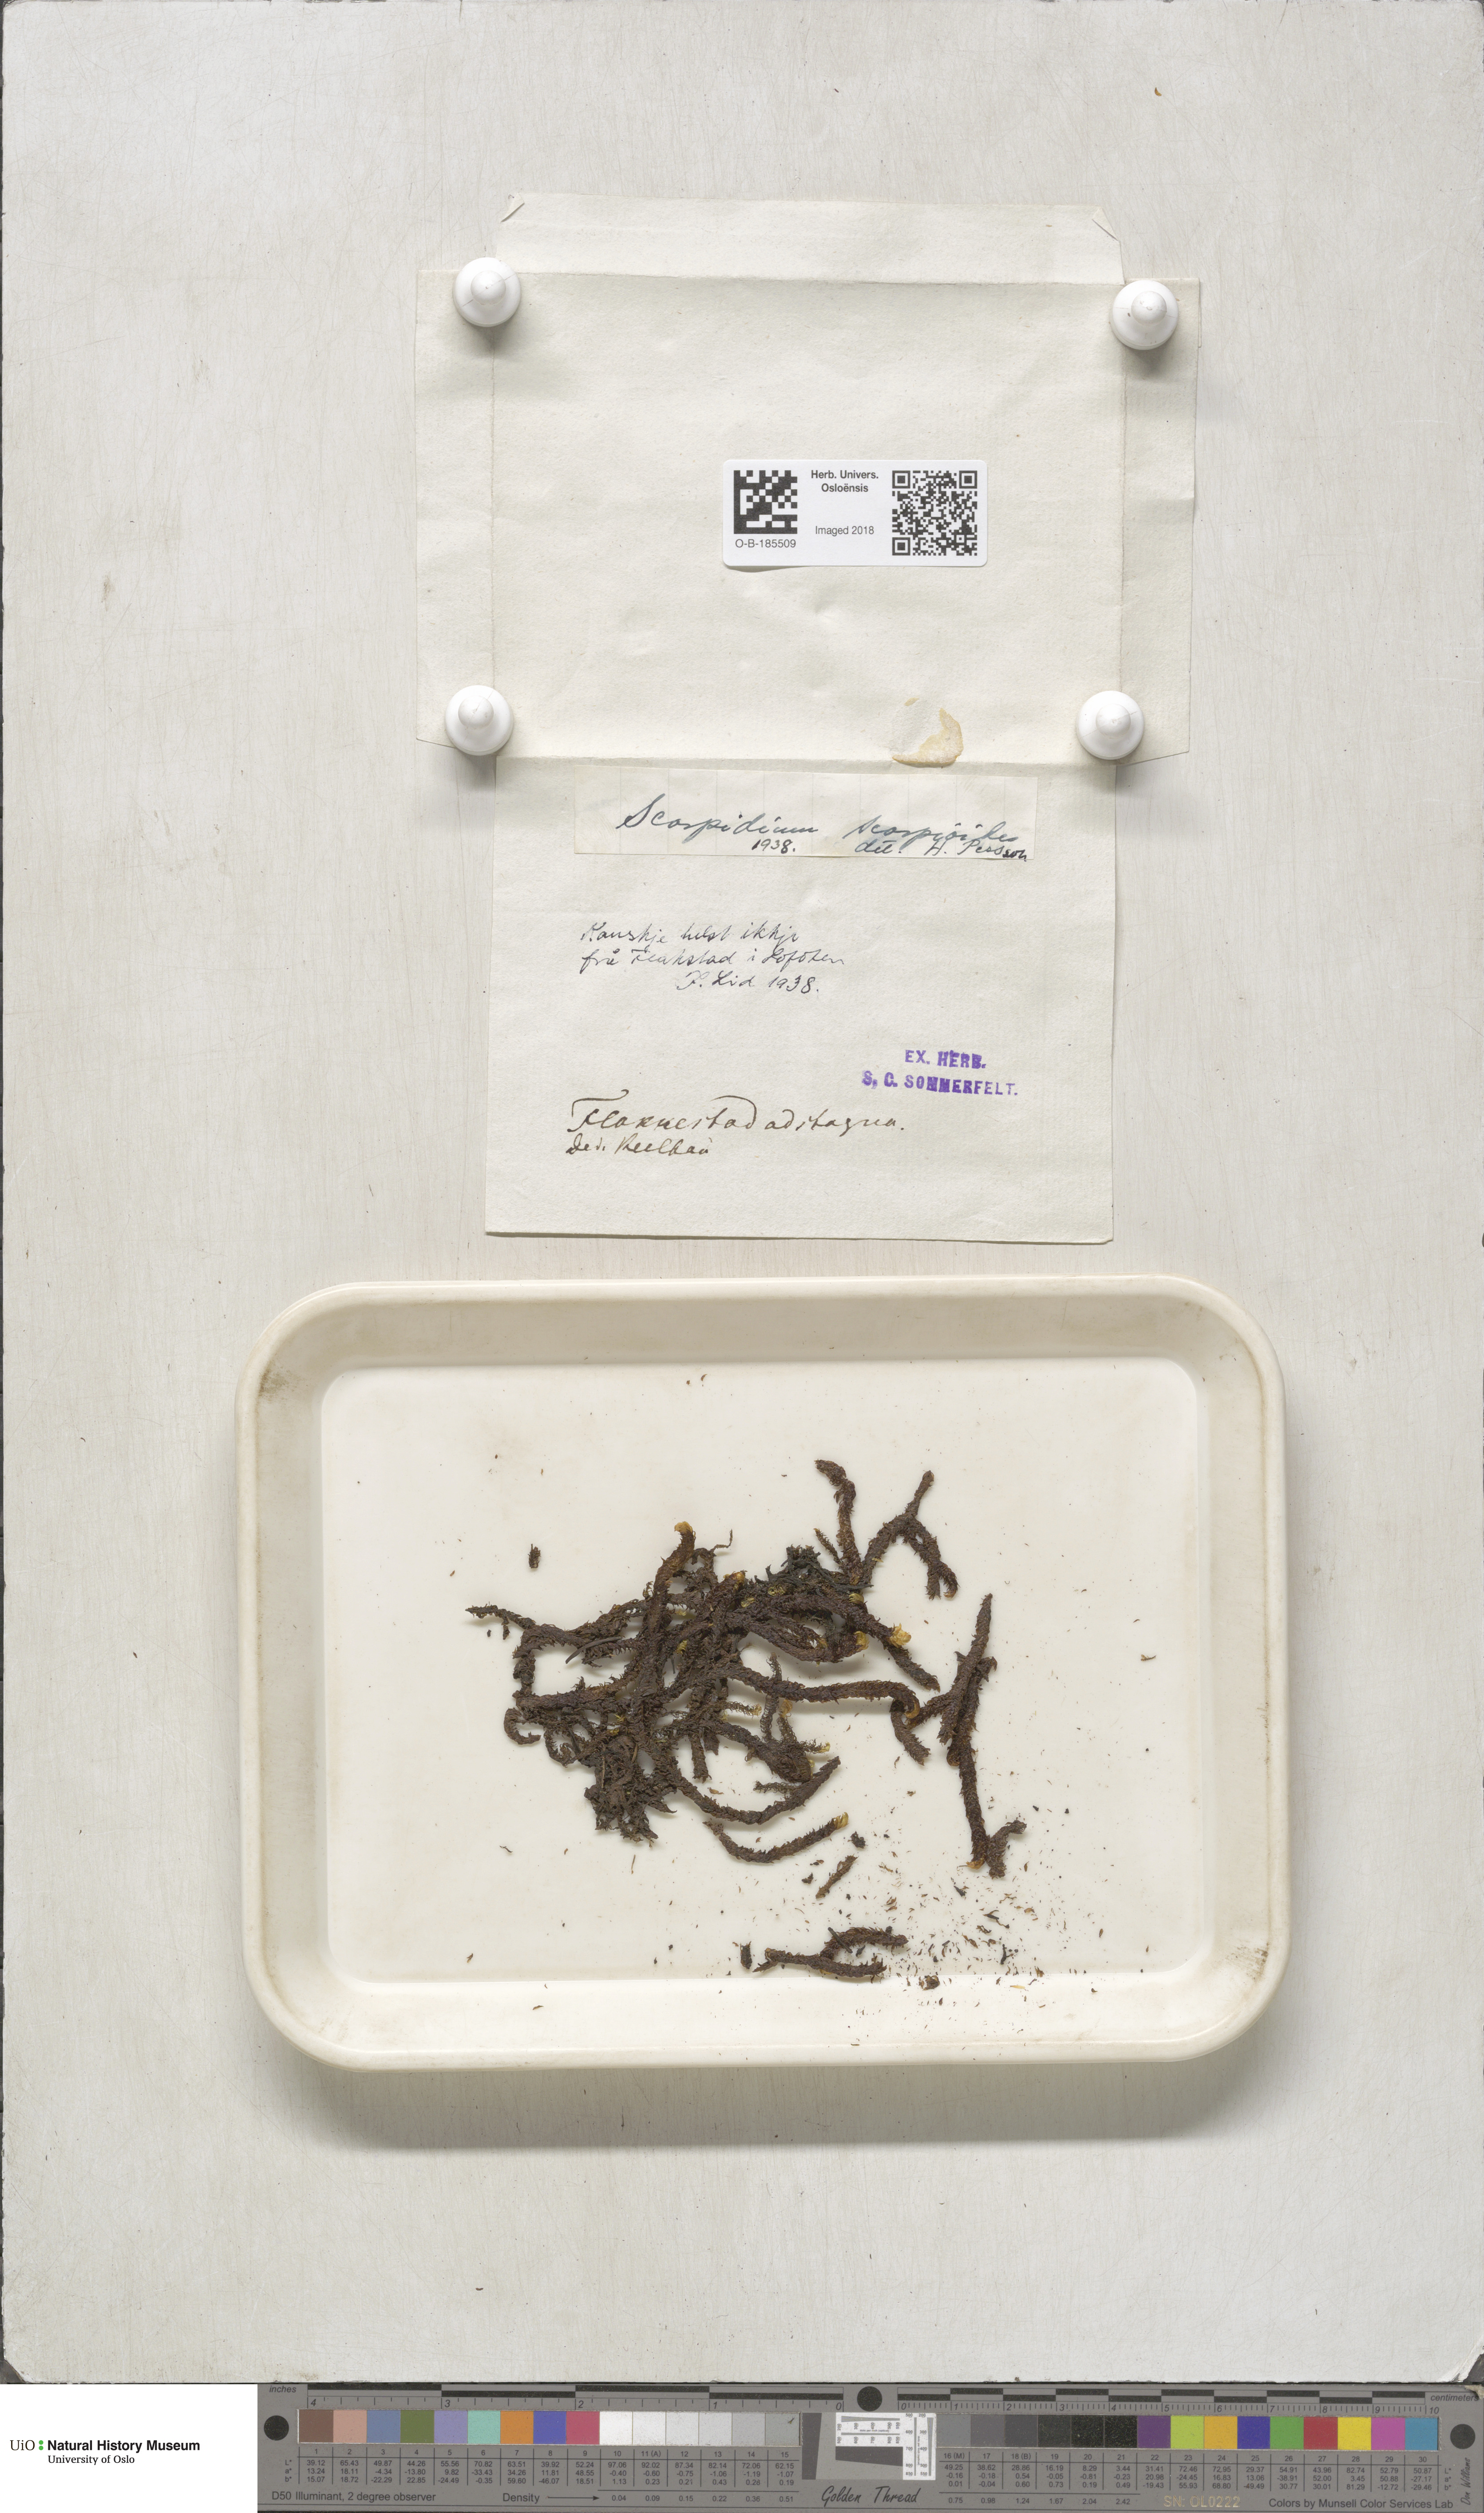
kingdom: Plantae
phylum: Bryophyta
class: Bryopsida
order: Hypnales
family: Scorpidiaceae
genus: Scorpidium
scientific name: Scorpidium scorpioides
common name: Hooked scorpion moss
